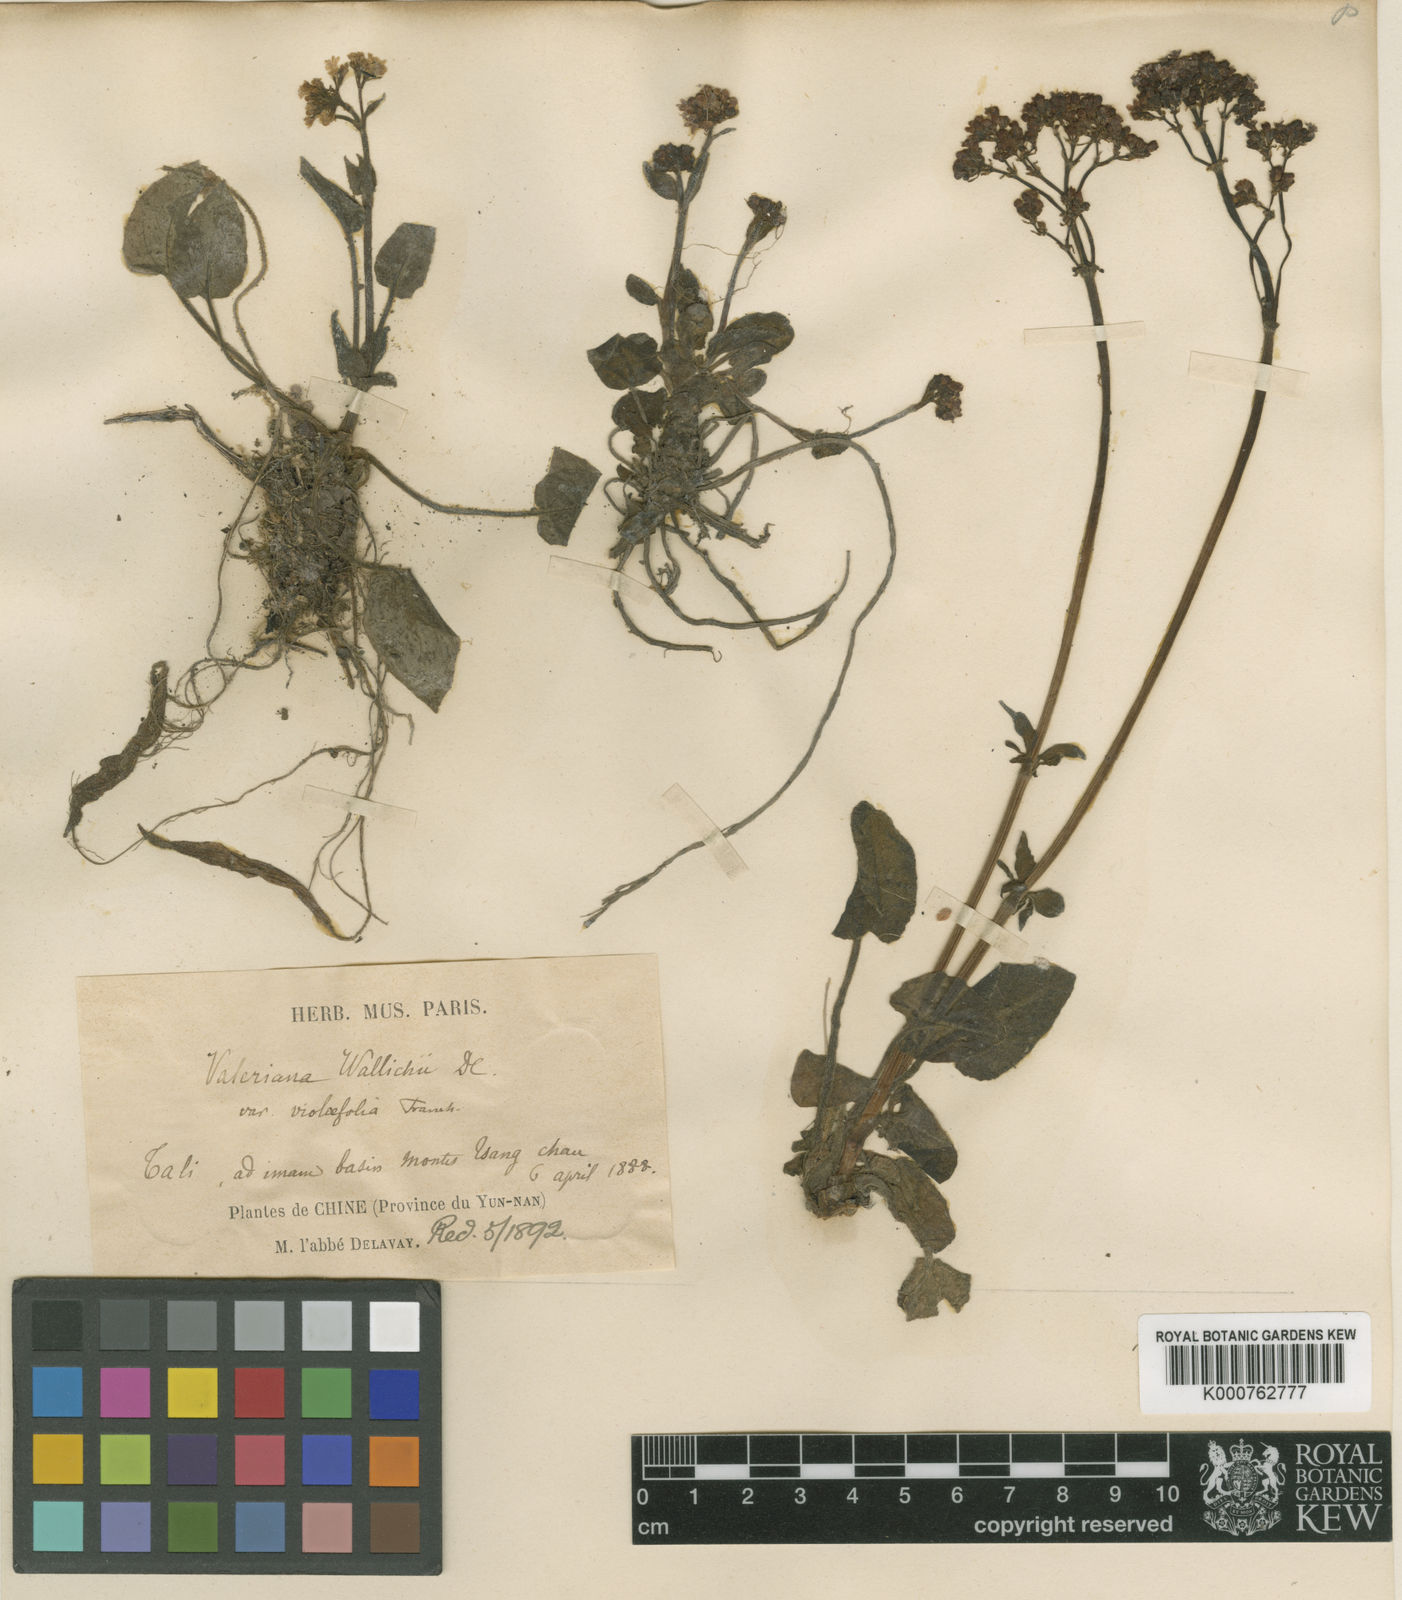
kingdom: Plantae
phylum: Tracheophyta
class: Magnoliopsida
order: Dipsacales
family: Caprifoliaceae
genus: Valeriana
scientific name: Valeriana
